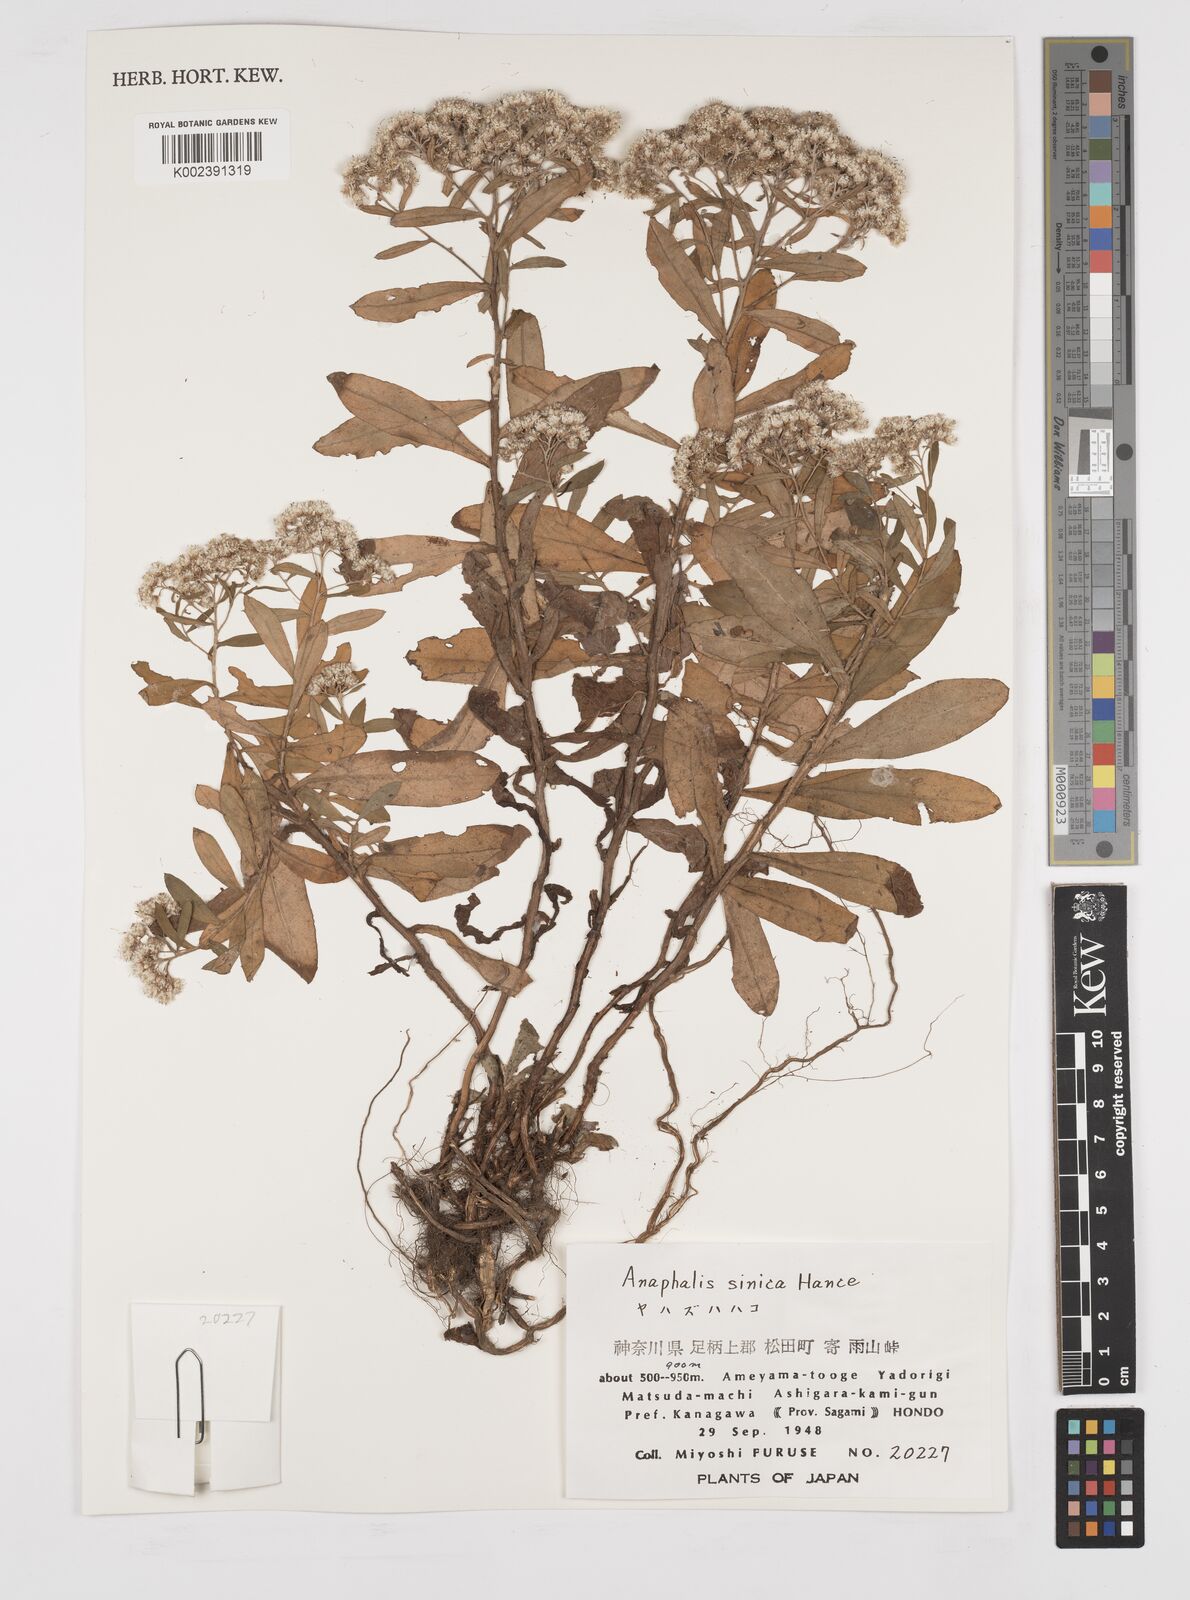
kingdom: Plantae
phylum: Tracheophyta
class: Magnoliopsida
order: Asterales
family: Asteraceae
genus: Anaphalis
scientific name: Anaphalis sinica
